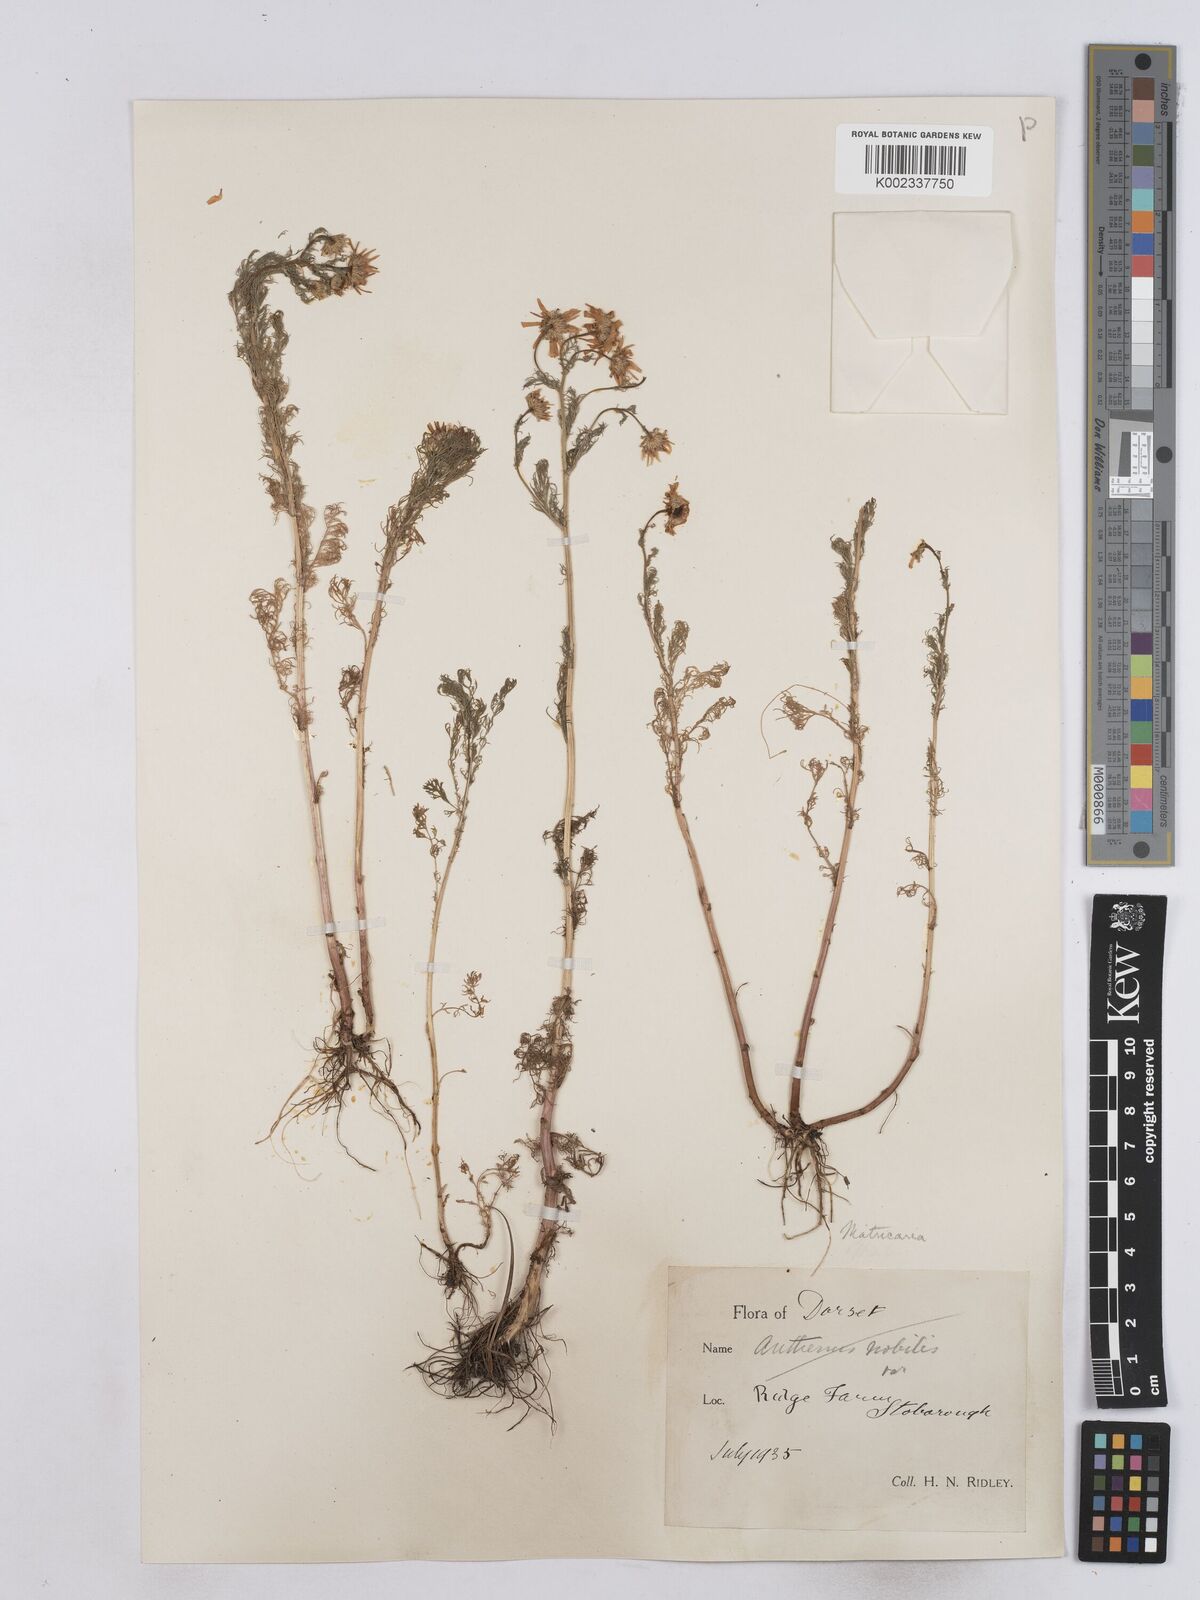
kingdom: Plantae
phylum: Tracheophyta
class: Magnoliopsida
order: Asterales
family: Asteraceae
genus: Matricaria
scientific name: Matricaria chamomilla
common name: Scented mayweed
